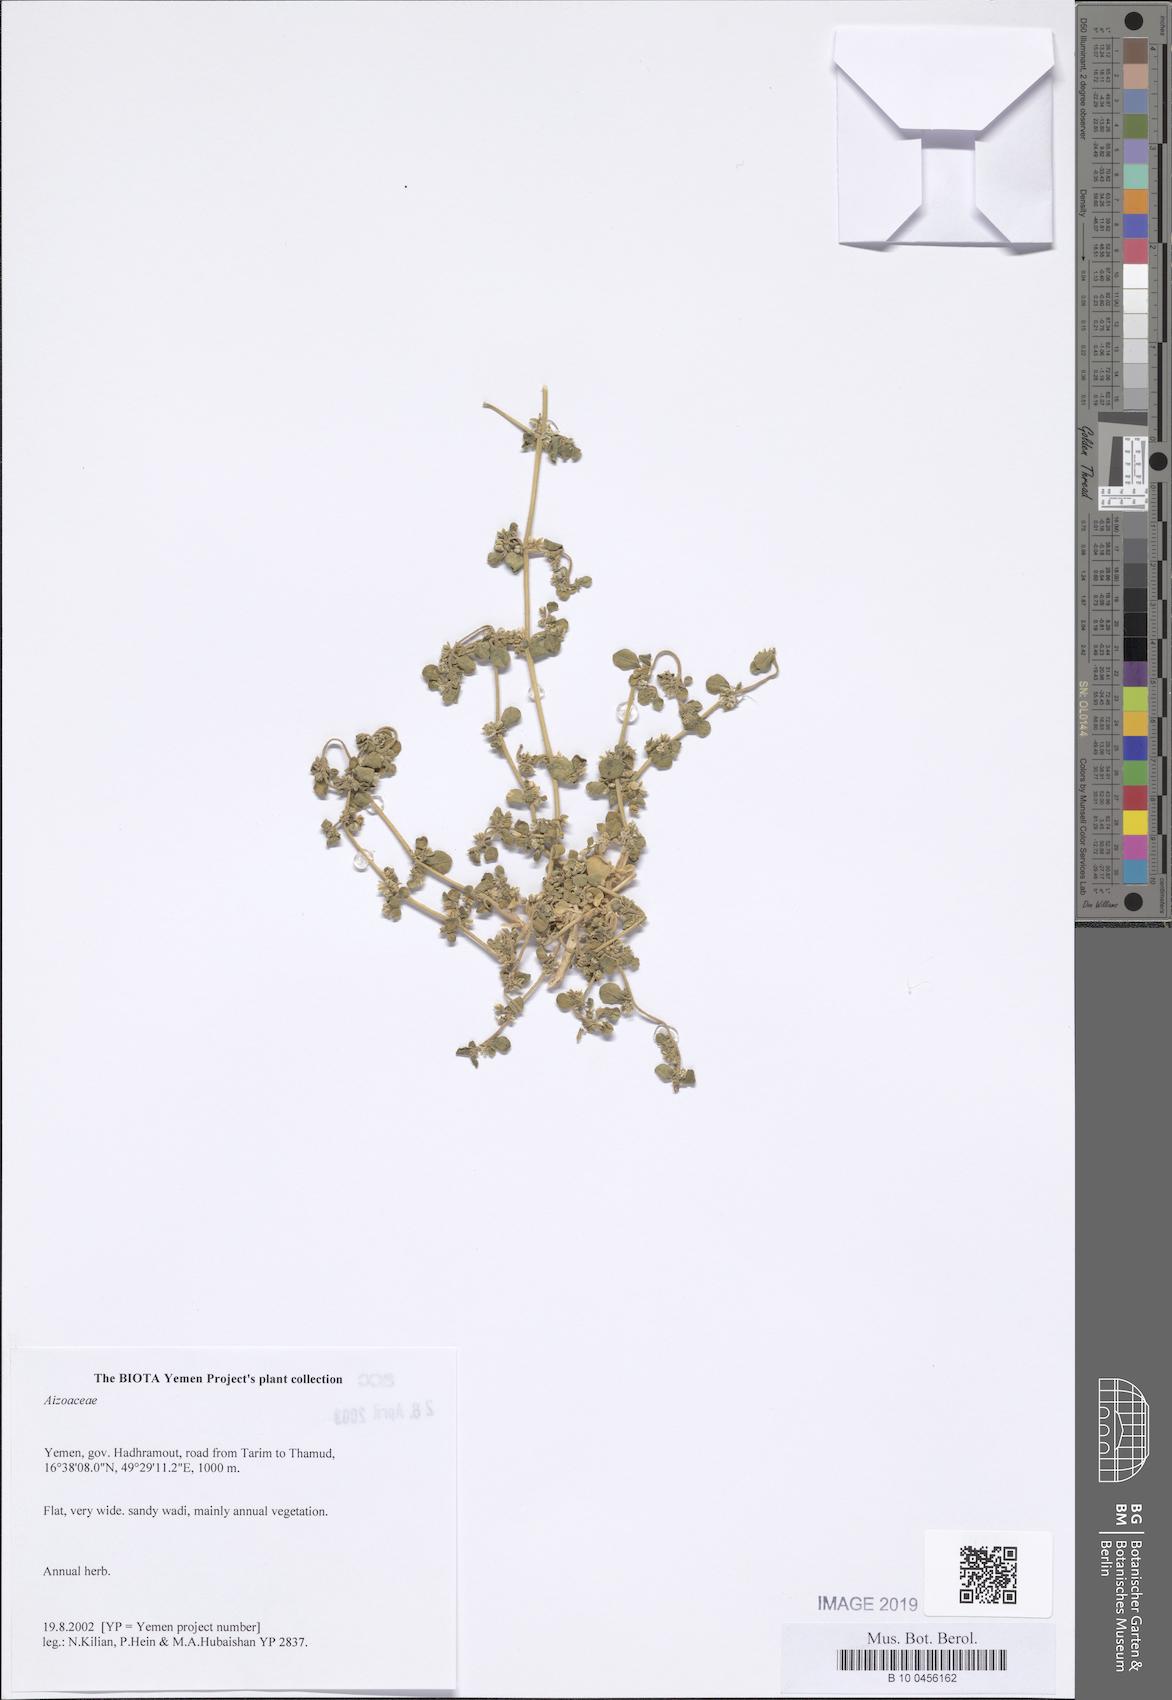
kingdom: Plantae
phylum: Tracheophyta
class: Magnoliopsida
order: Caryophyllales
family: Aizoaceae
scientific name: Aizoaceae
